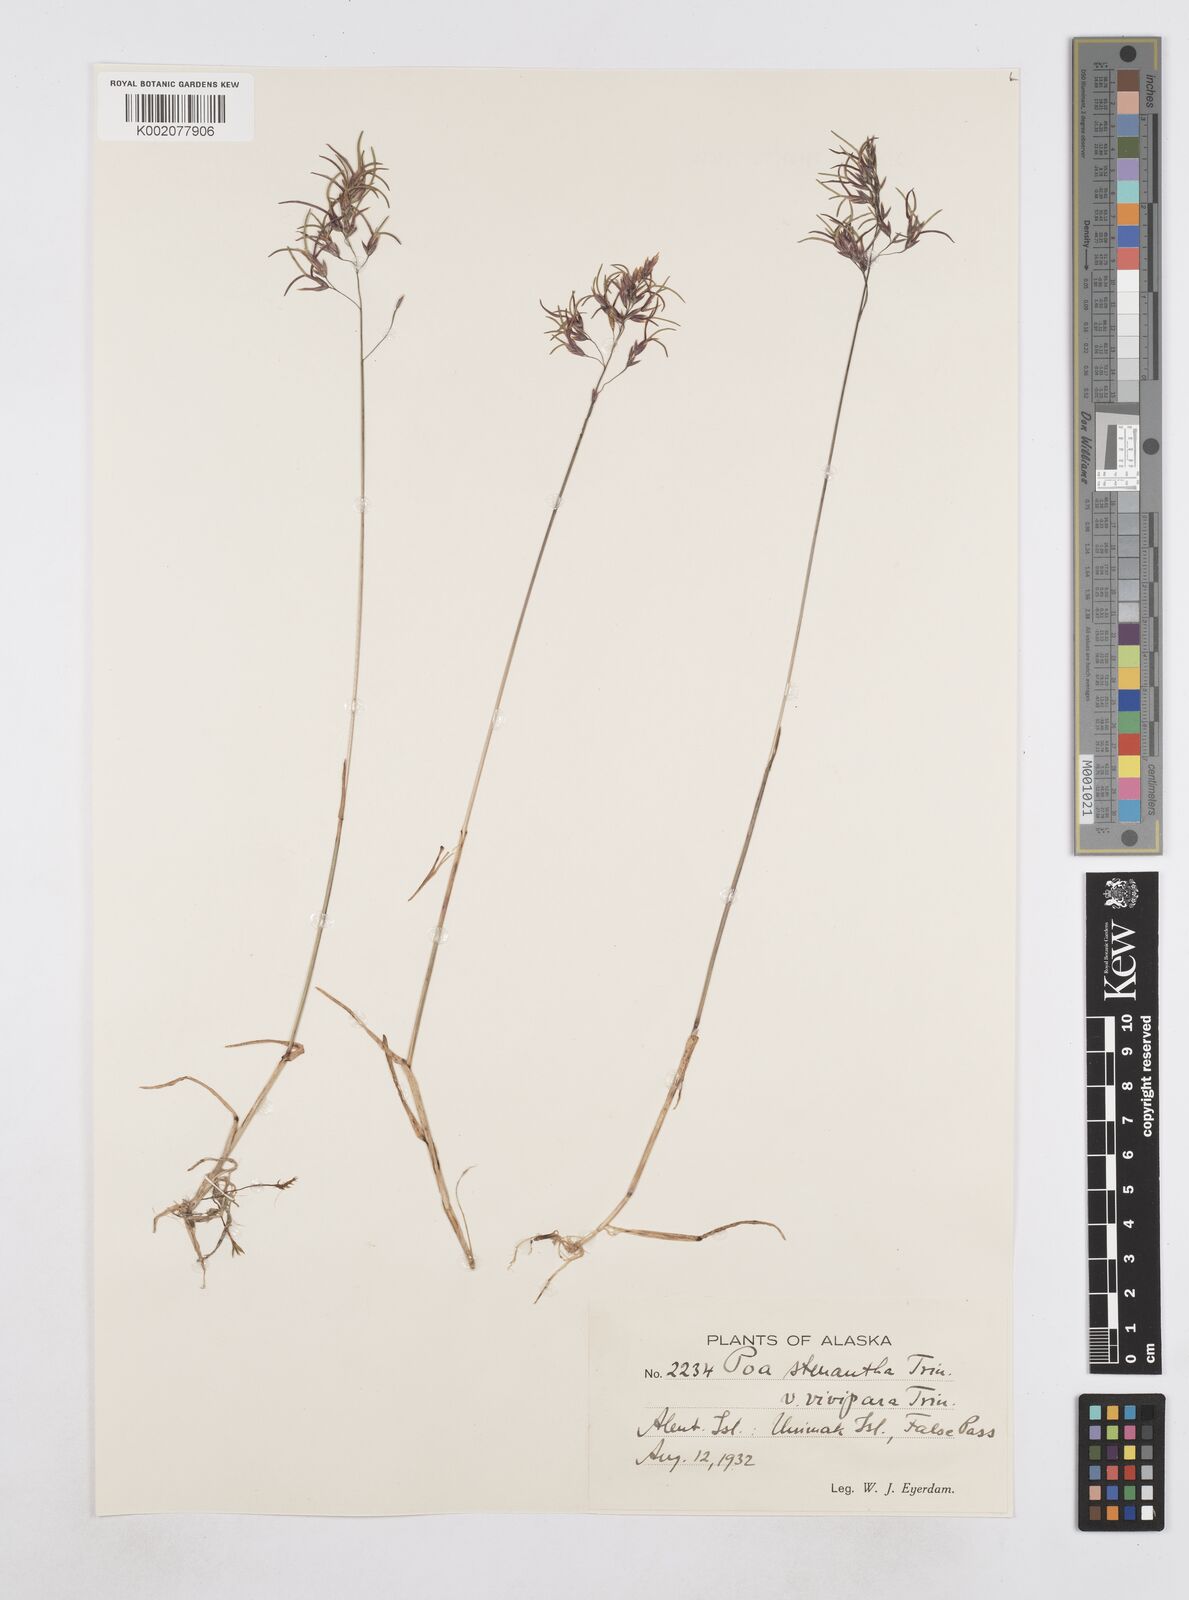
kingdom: Plantae
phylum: Tracheophyta
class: Liliopsida
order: Poales
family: Poaceae
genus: Poa
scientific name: Poa stenantha
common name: Narrow-flowered bluegrass
